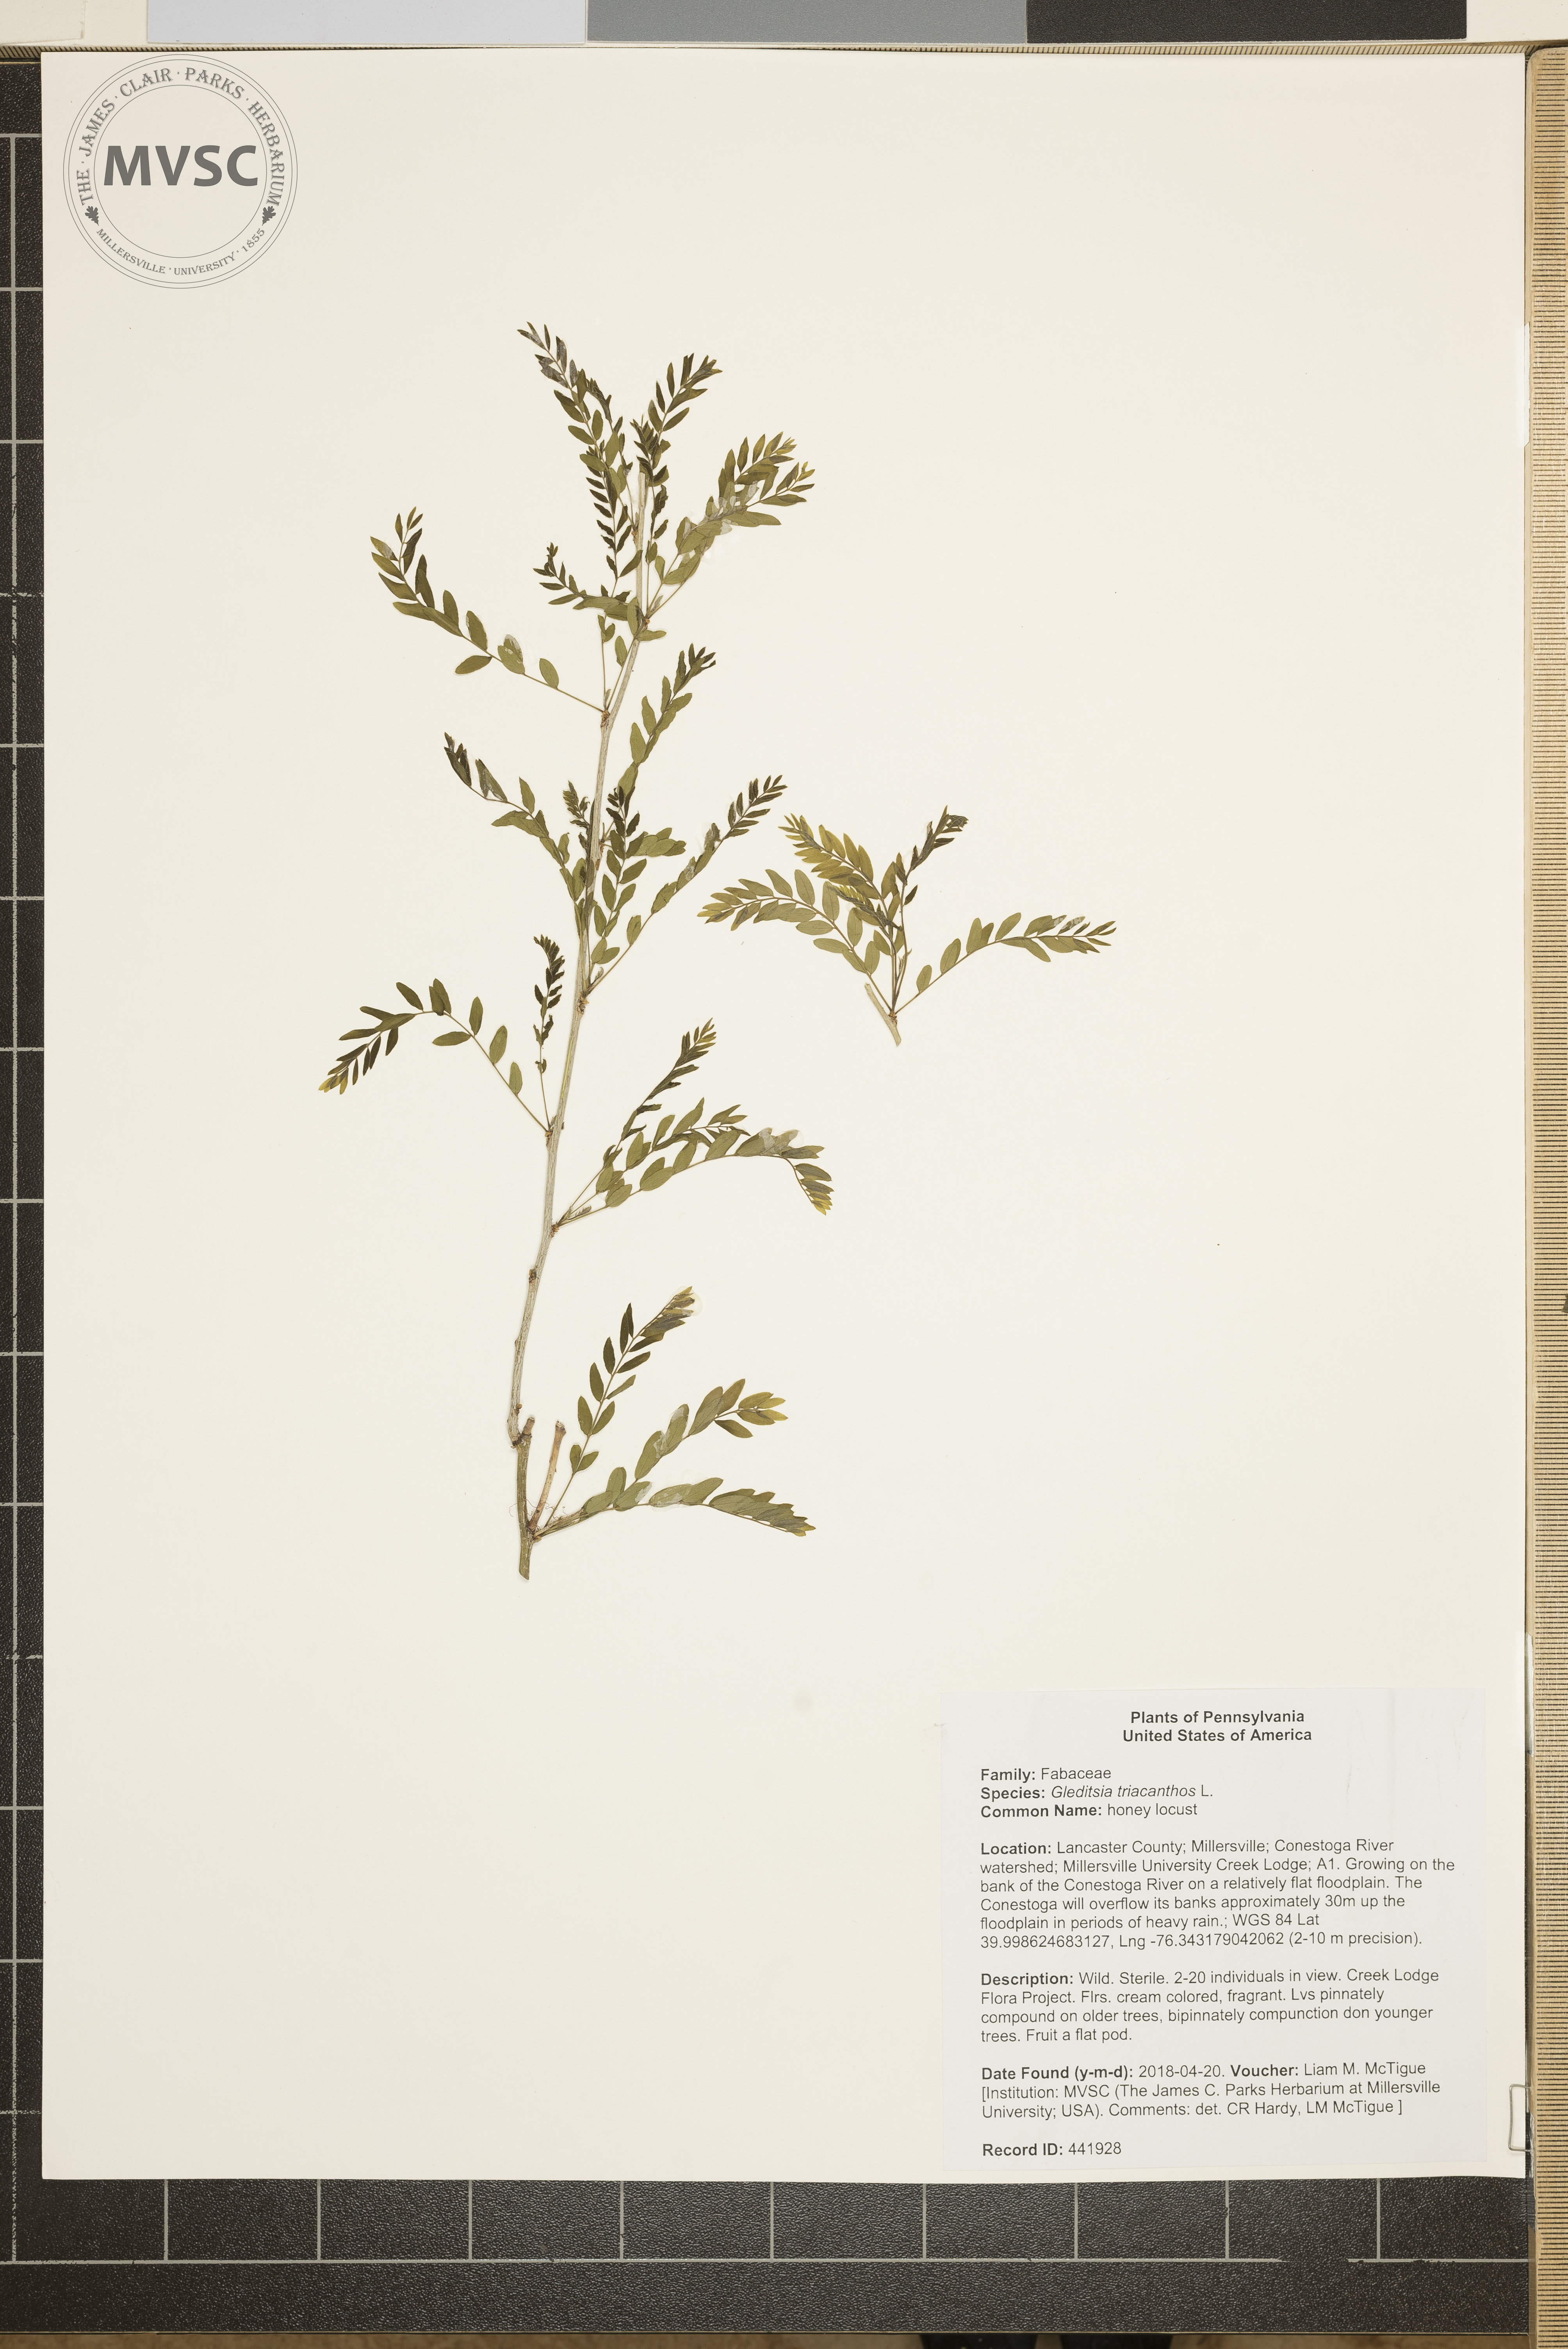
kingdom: Plantae
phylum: Tracheophyta
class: Magnoliopsida
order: Fabales
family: Fabaceae
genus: Gleditsia
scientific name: Gleditsia triacanthos
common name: Honey Locust
